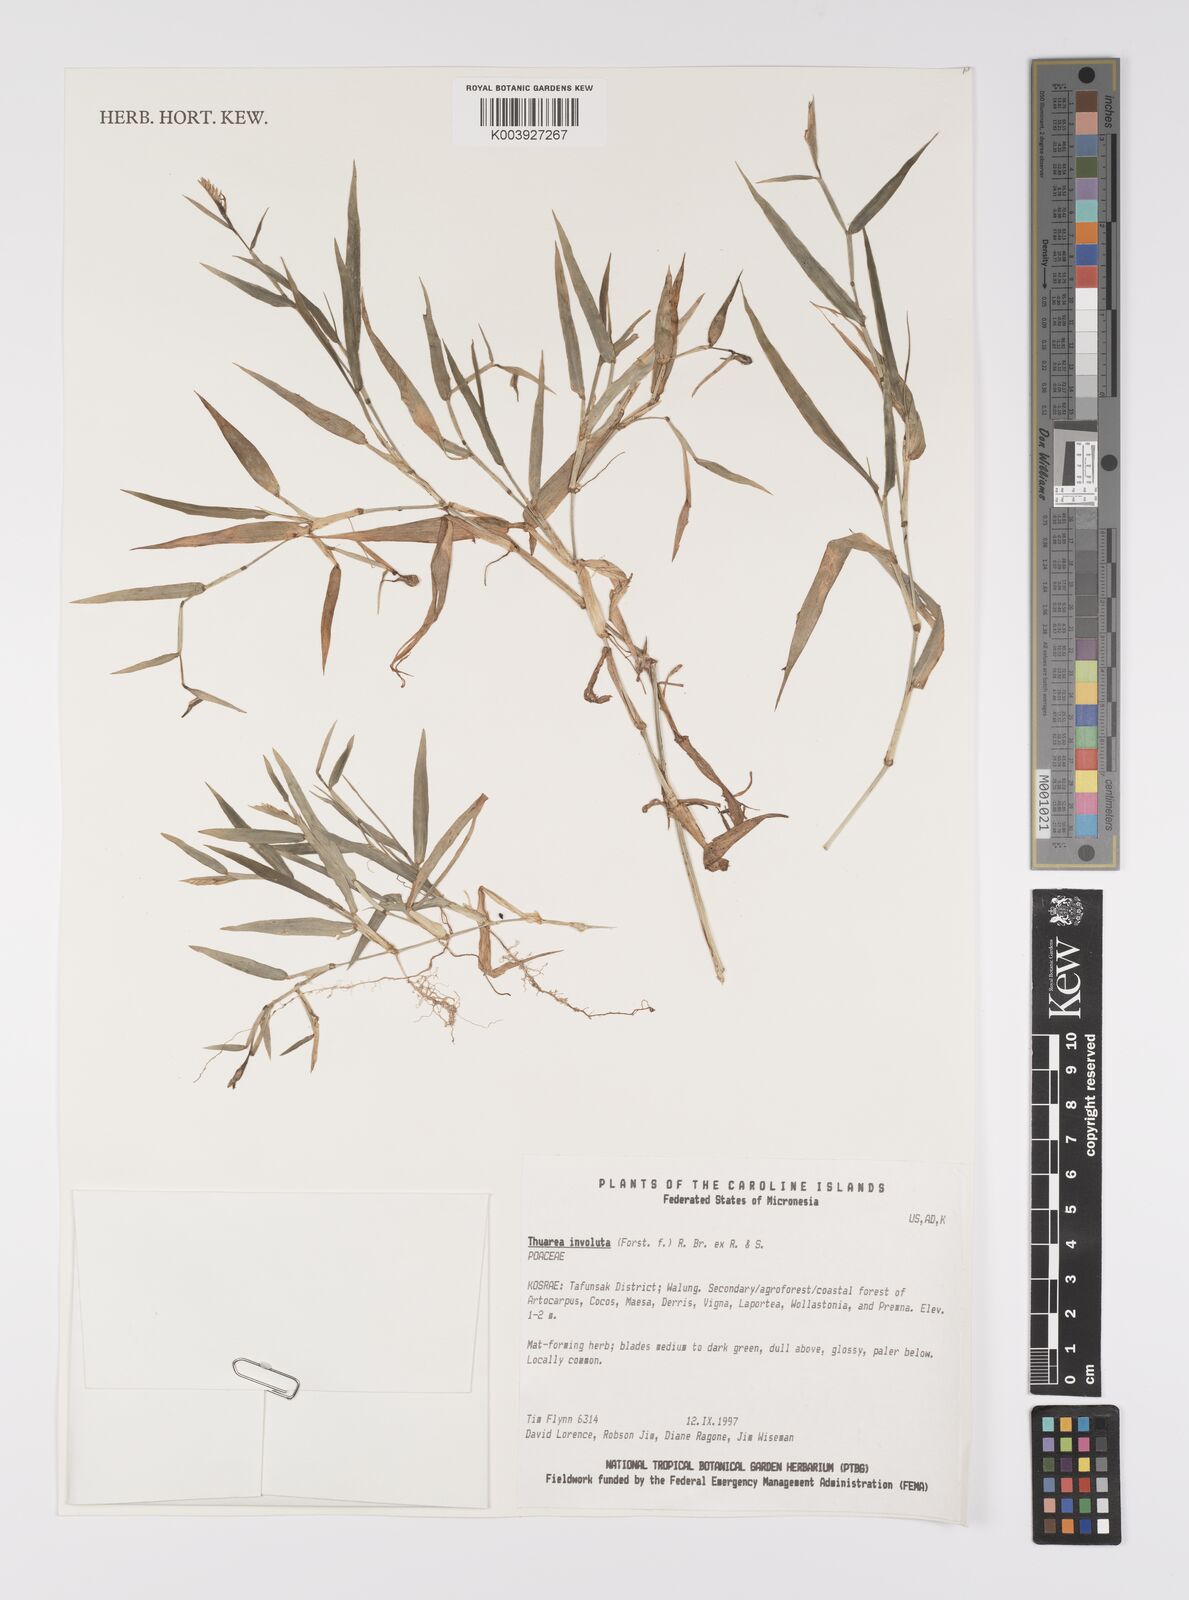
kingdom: Plantae
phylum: Tracheophyta
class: Liliopsida
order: Poales
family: Poaceae
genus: Thuarea
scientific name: Thuarea involuta
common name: Tropical beach grass
